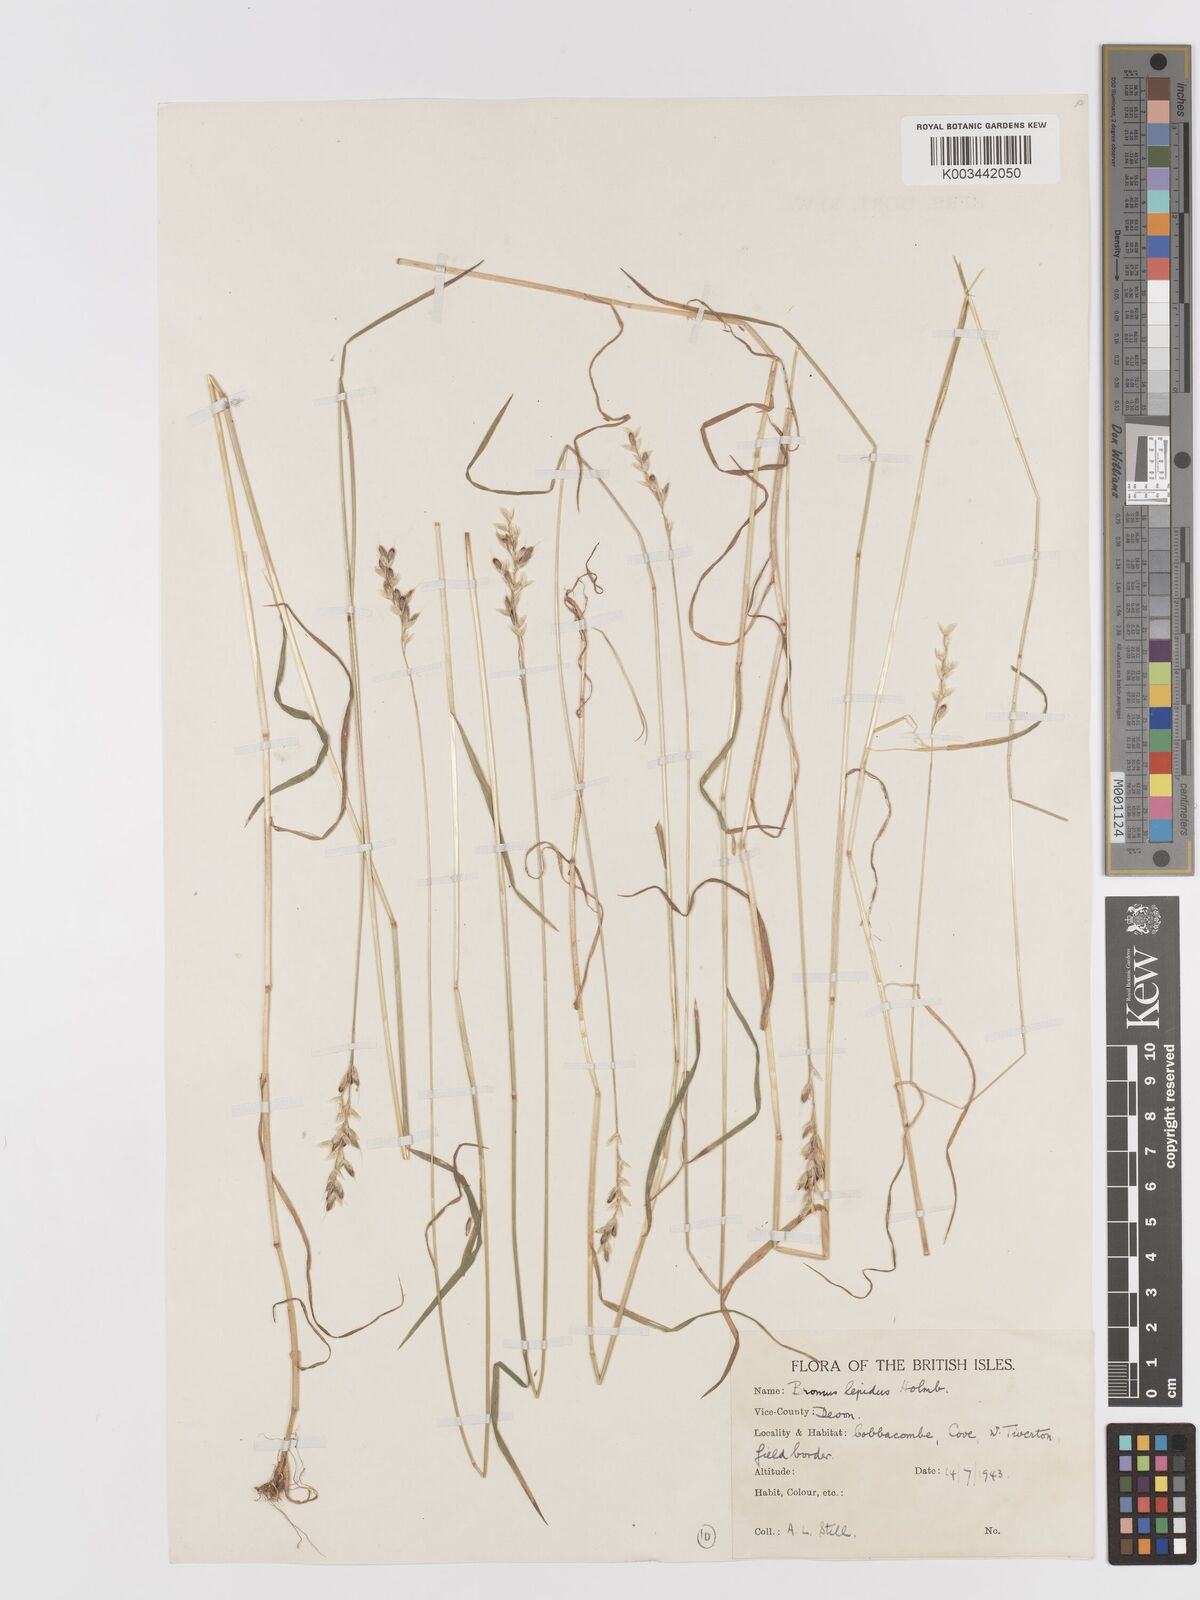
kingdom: Plantae
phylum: Tracheophyta
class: Liliopsida
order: Poales
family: Poaceae
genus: Bromus
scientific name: Bromus lepidus
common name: Slender soft-brome
